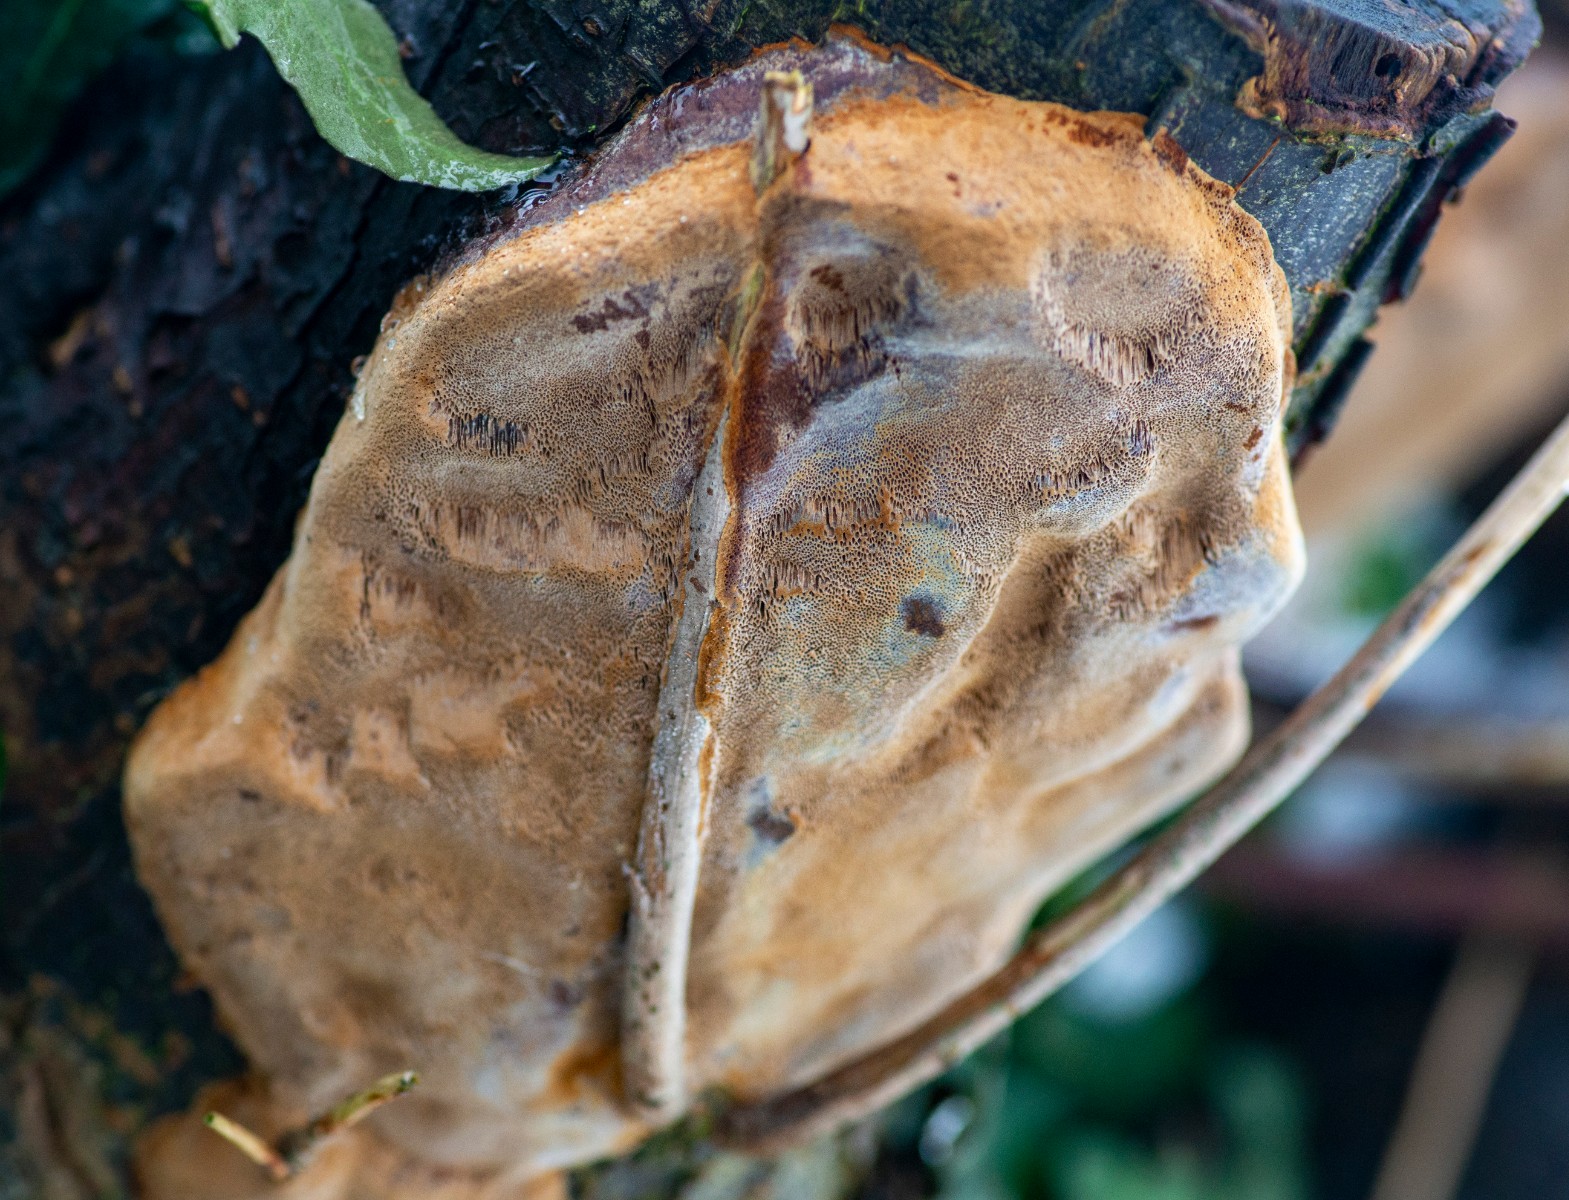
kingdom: Fungi
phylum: Basidiomycota
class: Agaricomycetes
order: Hymenochaetales
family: Hymenochaetaceae
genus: Phellinus
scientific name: Phellinus pomaceus
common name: blomme-ildporesvamp
